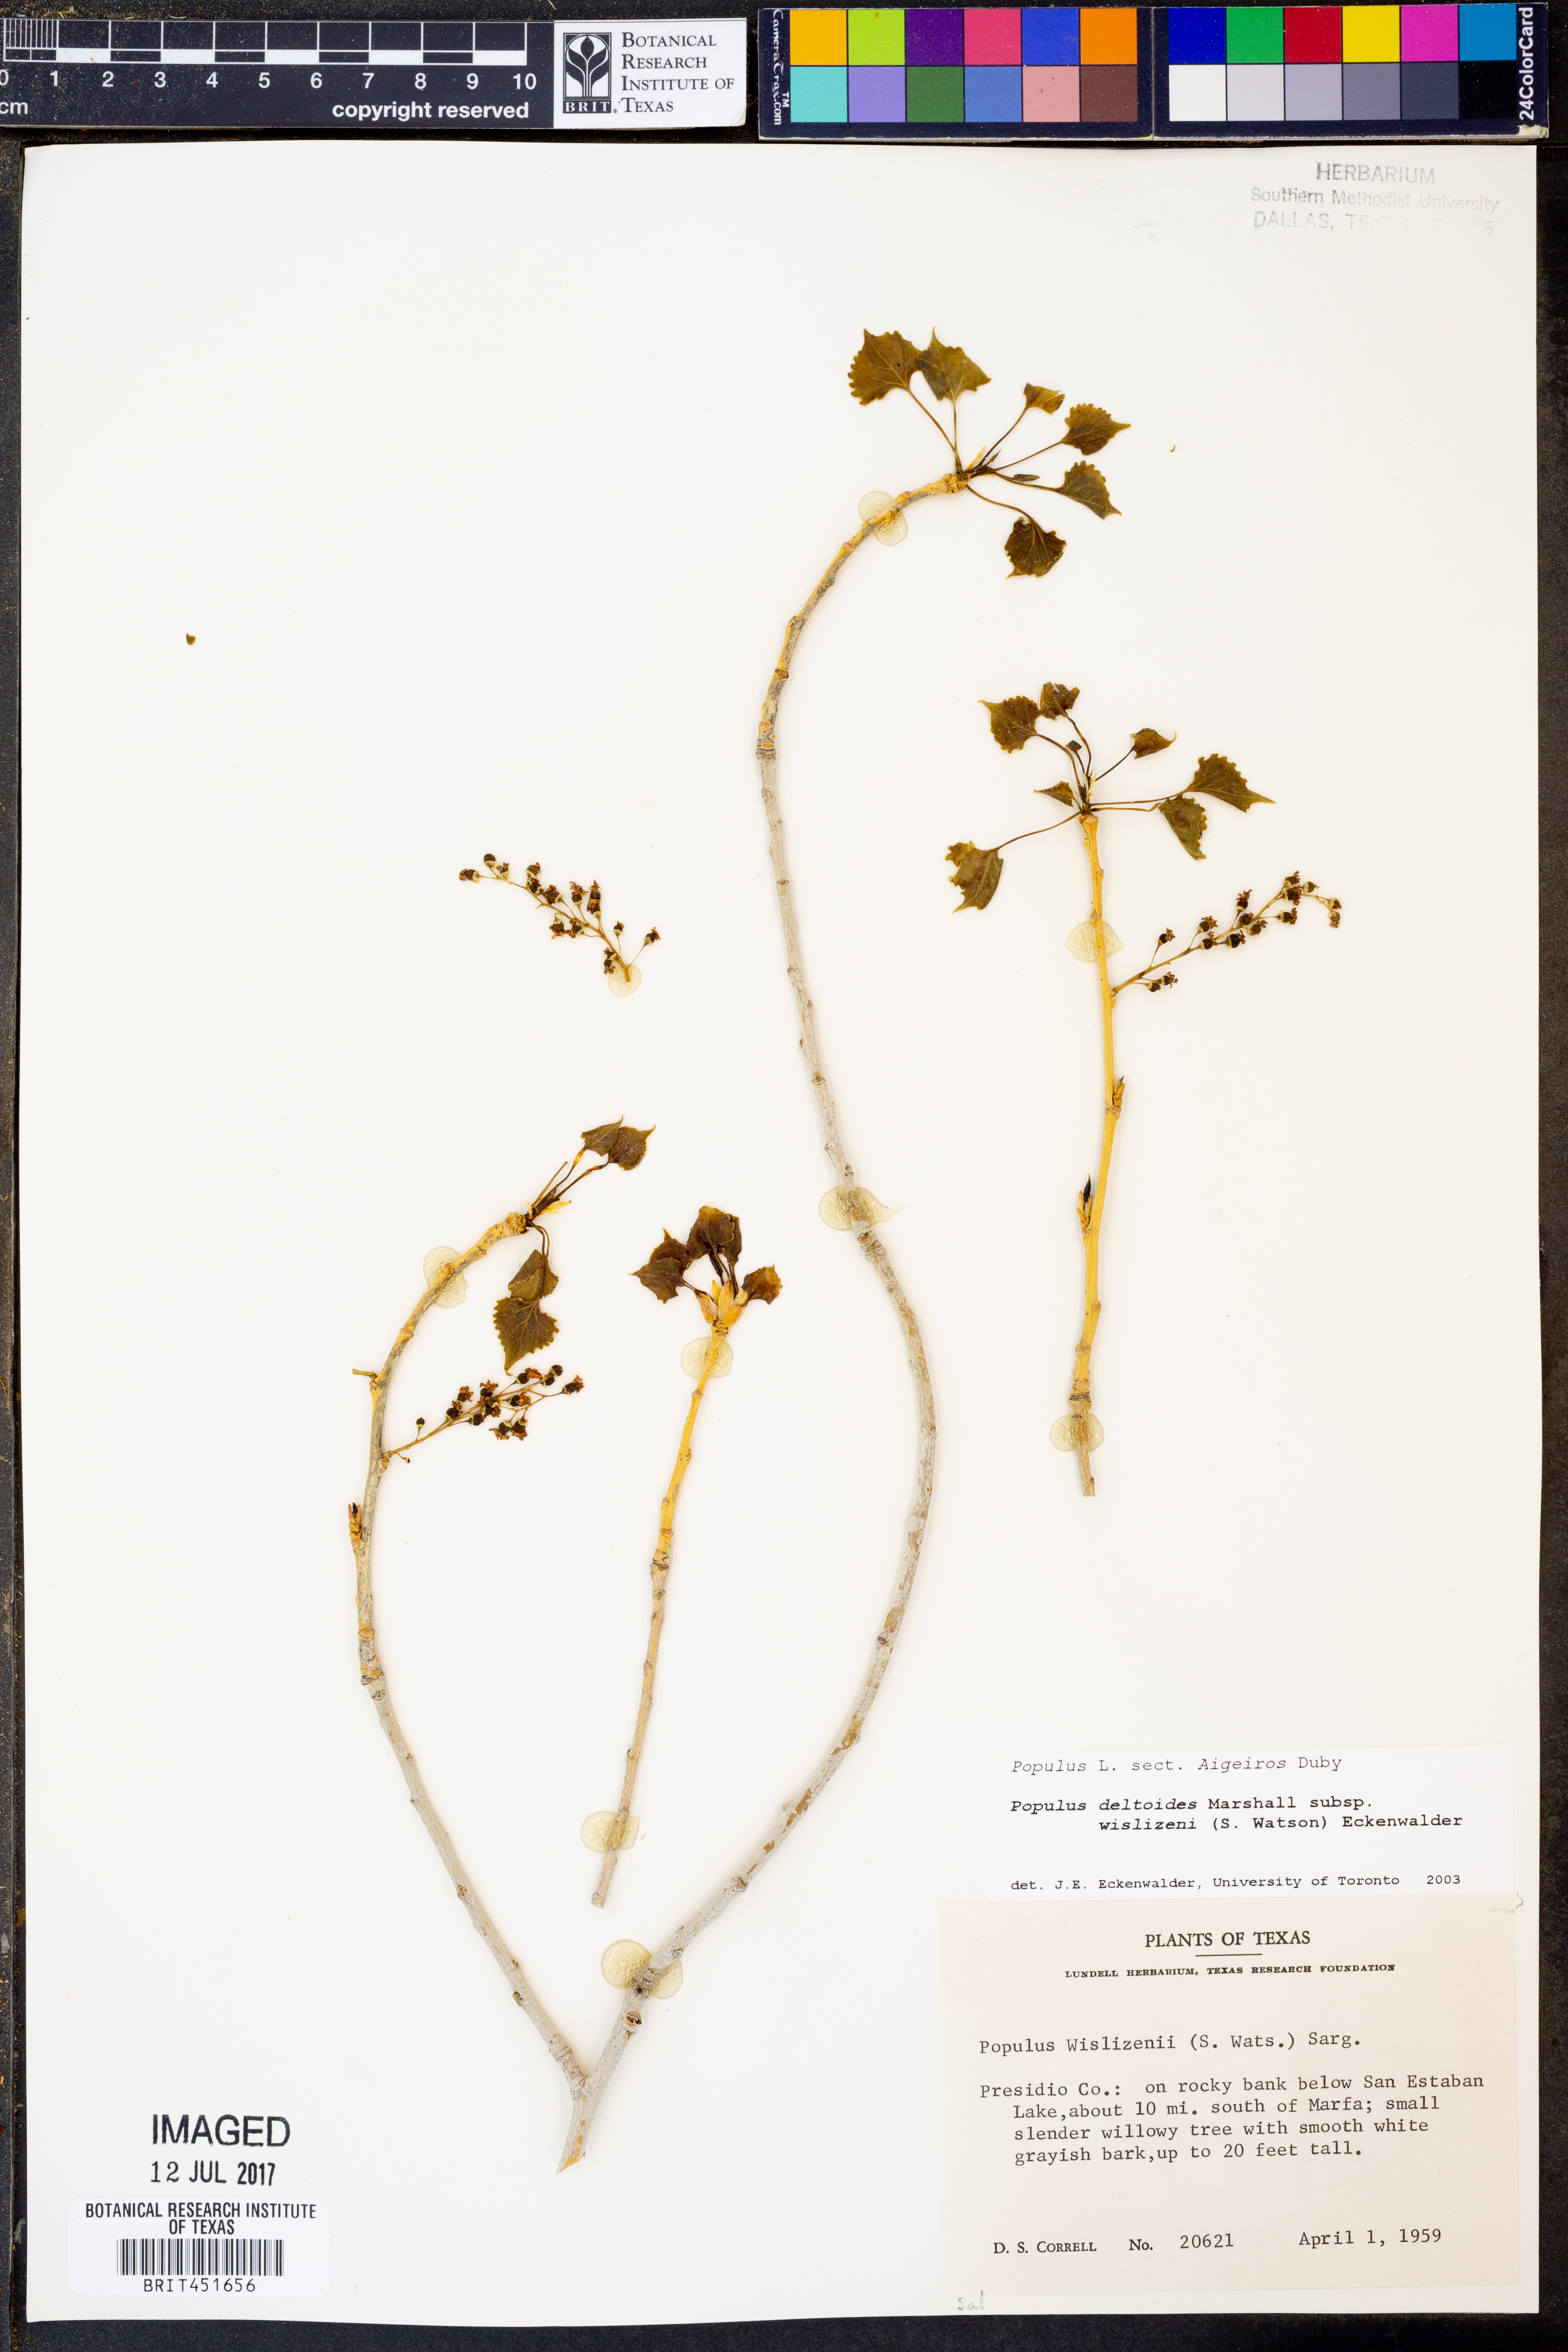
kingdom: Plantae
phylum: Tracheophyta
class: Magnoliopsida
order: Malpighiales
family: Salicaceae
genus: Populus
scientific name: Populus deltoides
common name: Eastern cottonwood
